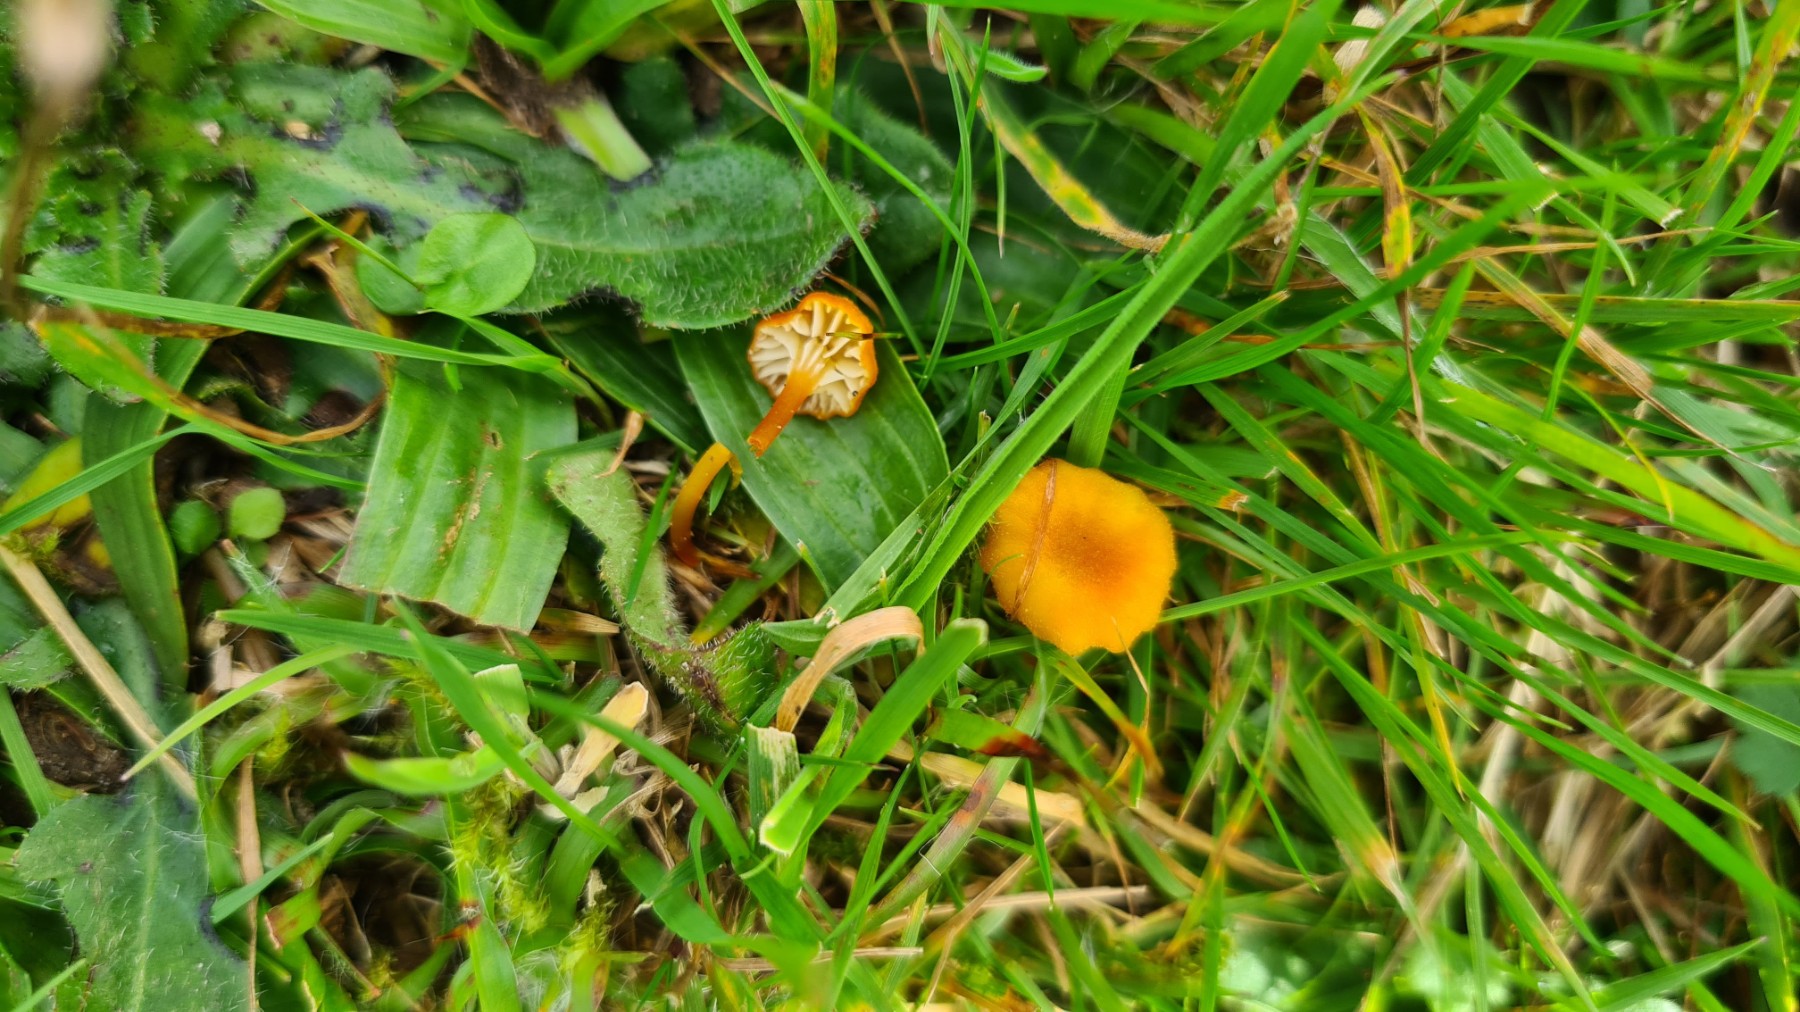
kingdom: Fungi
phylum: Basidiomycota
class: Agaricomycetes
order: Agaricales
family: Hygrophoraceae
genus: Hygrocybe
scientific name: Hygrocybe cantharellus
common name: kantarel-vokshat
